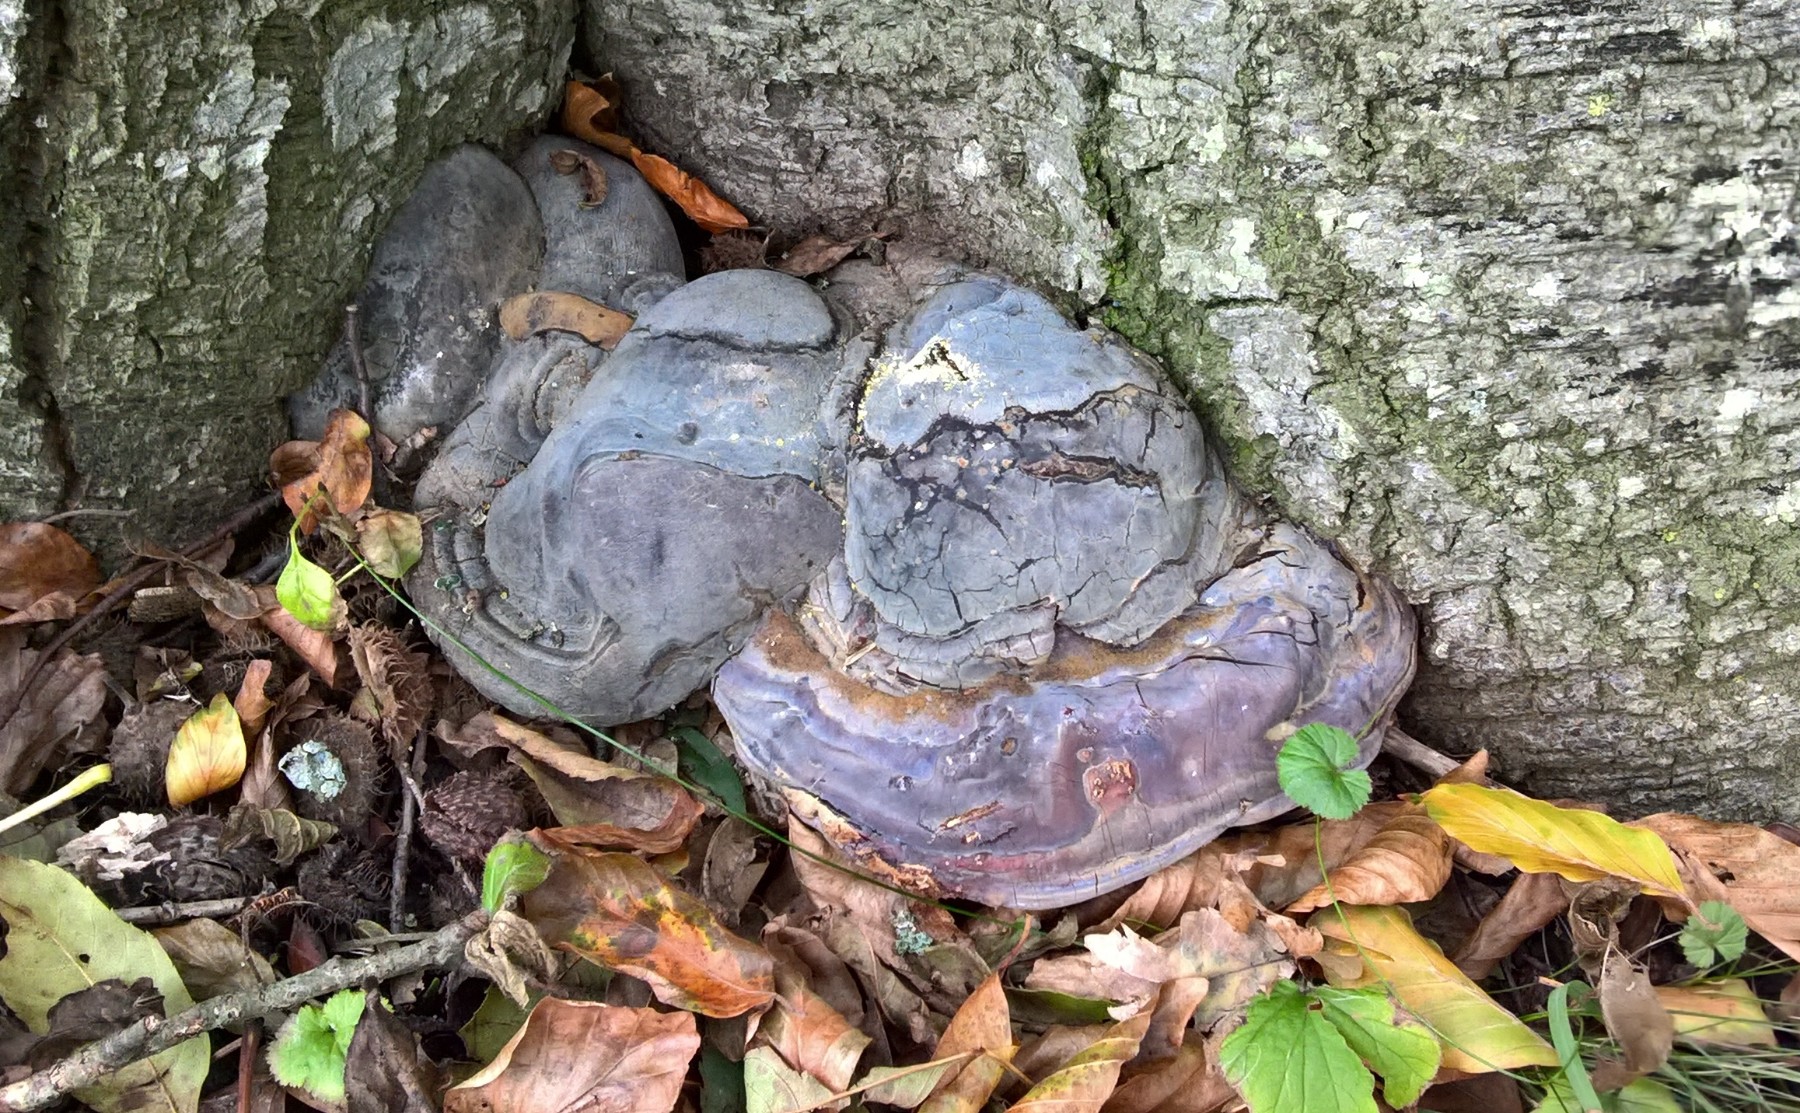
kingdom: Fungi
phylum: Basidiomycota
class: Agaricomycetes
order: Polyporales
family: Polyporaceae
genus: Ganoderma
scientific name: Ganoderma pfeifferi
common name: kobberrød lakporesvamp
